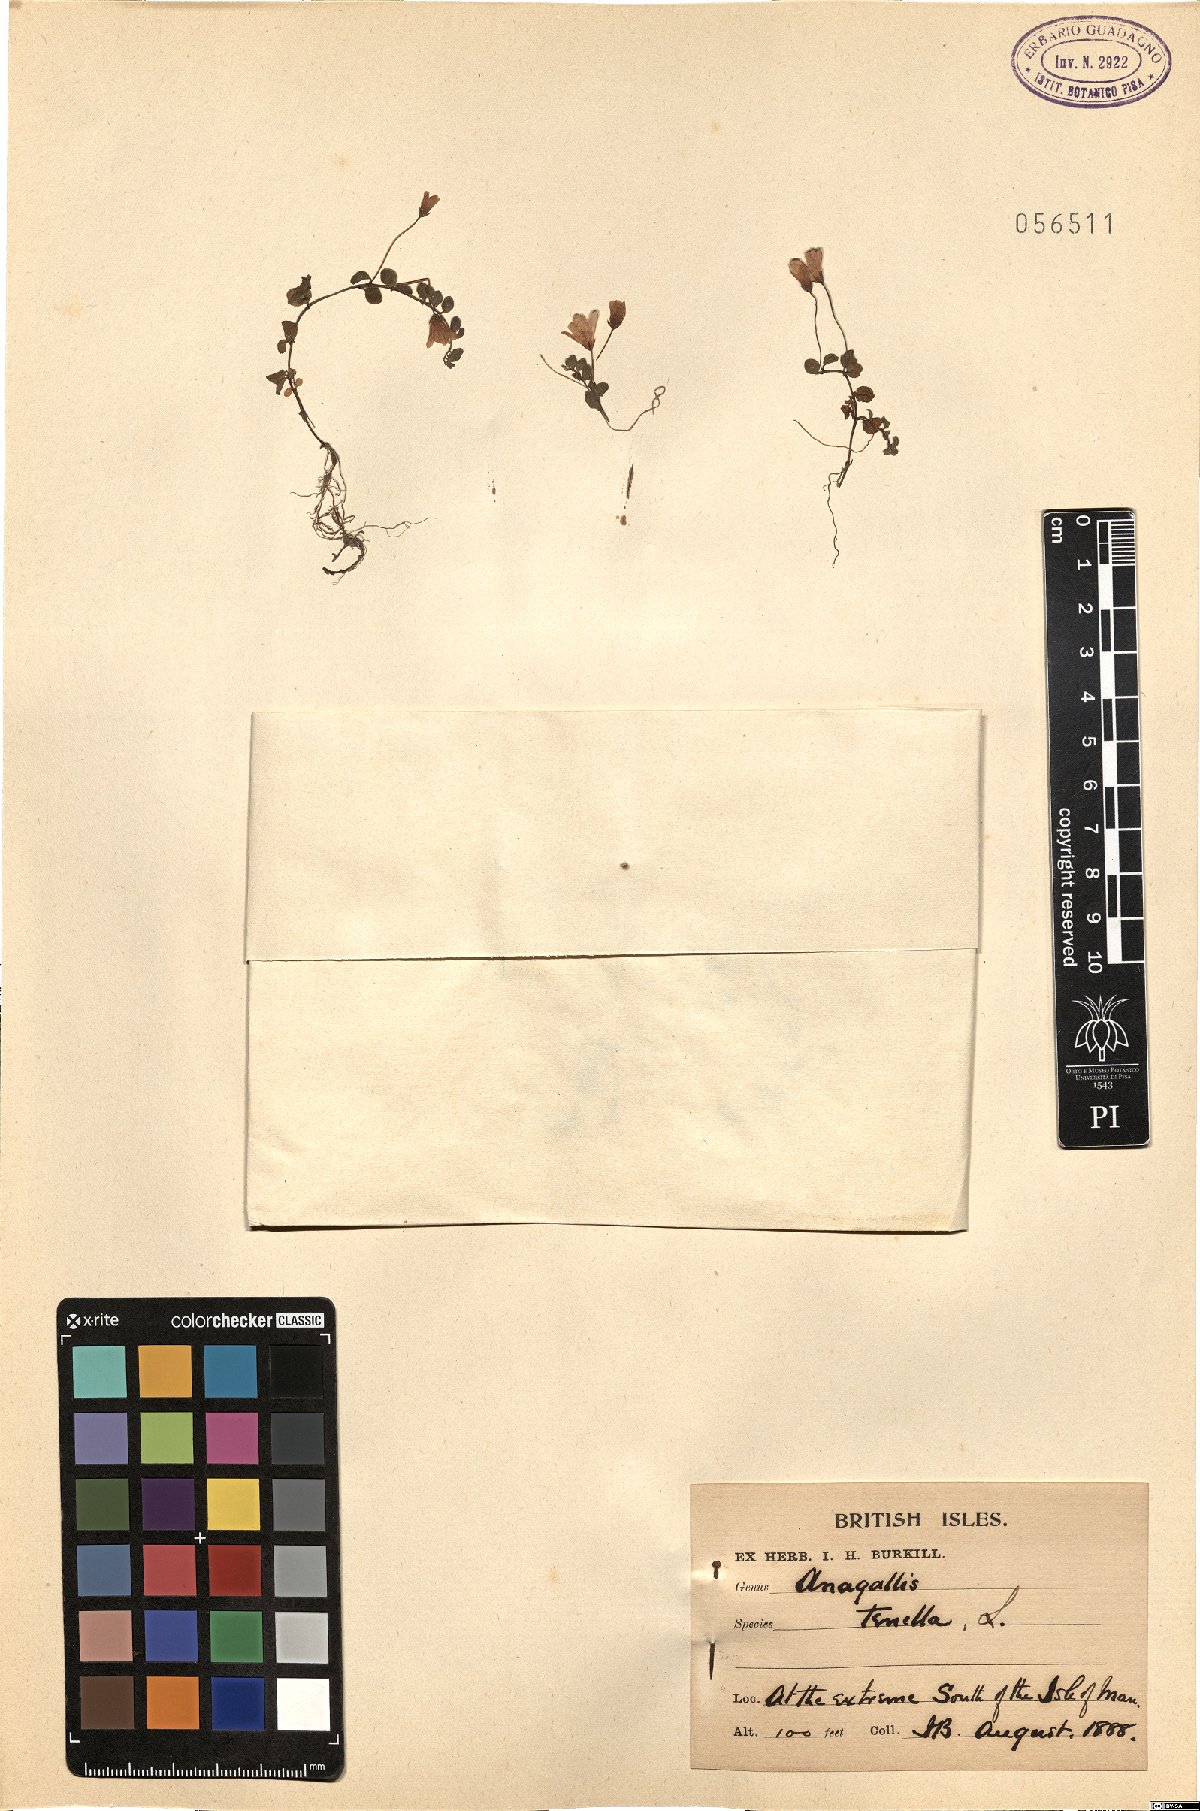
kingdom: Plantae
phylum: Tracheophyta
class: Magnoliopsida
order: Ericales
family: Primulaceae
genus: Lysimachia
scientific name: Lysimachia tenella
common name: European bog pimpernel
